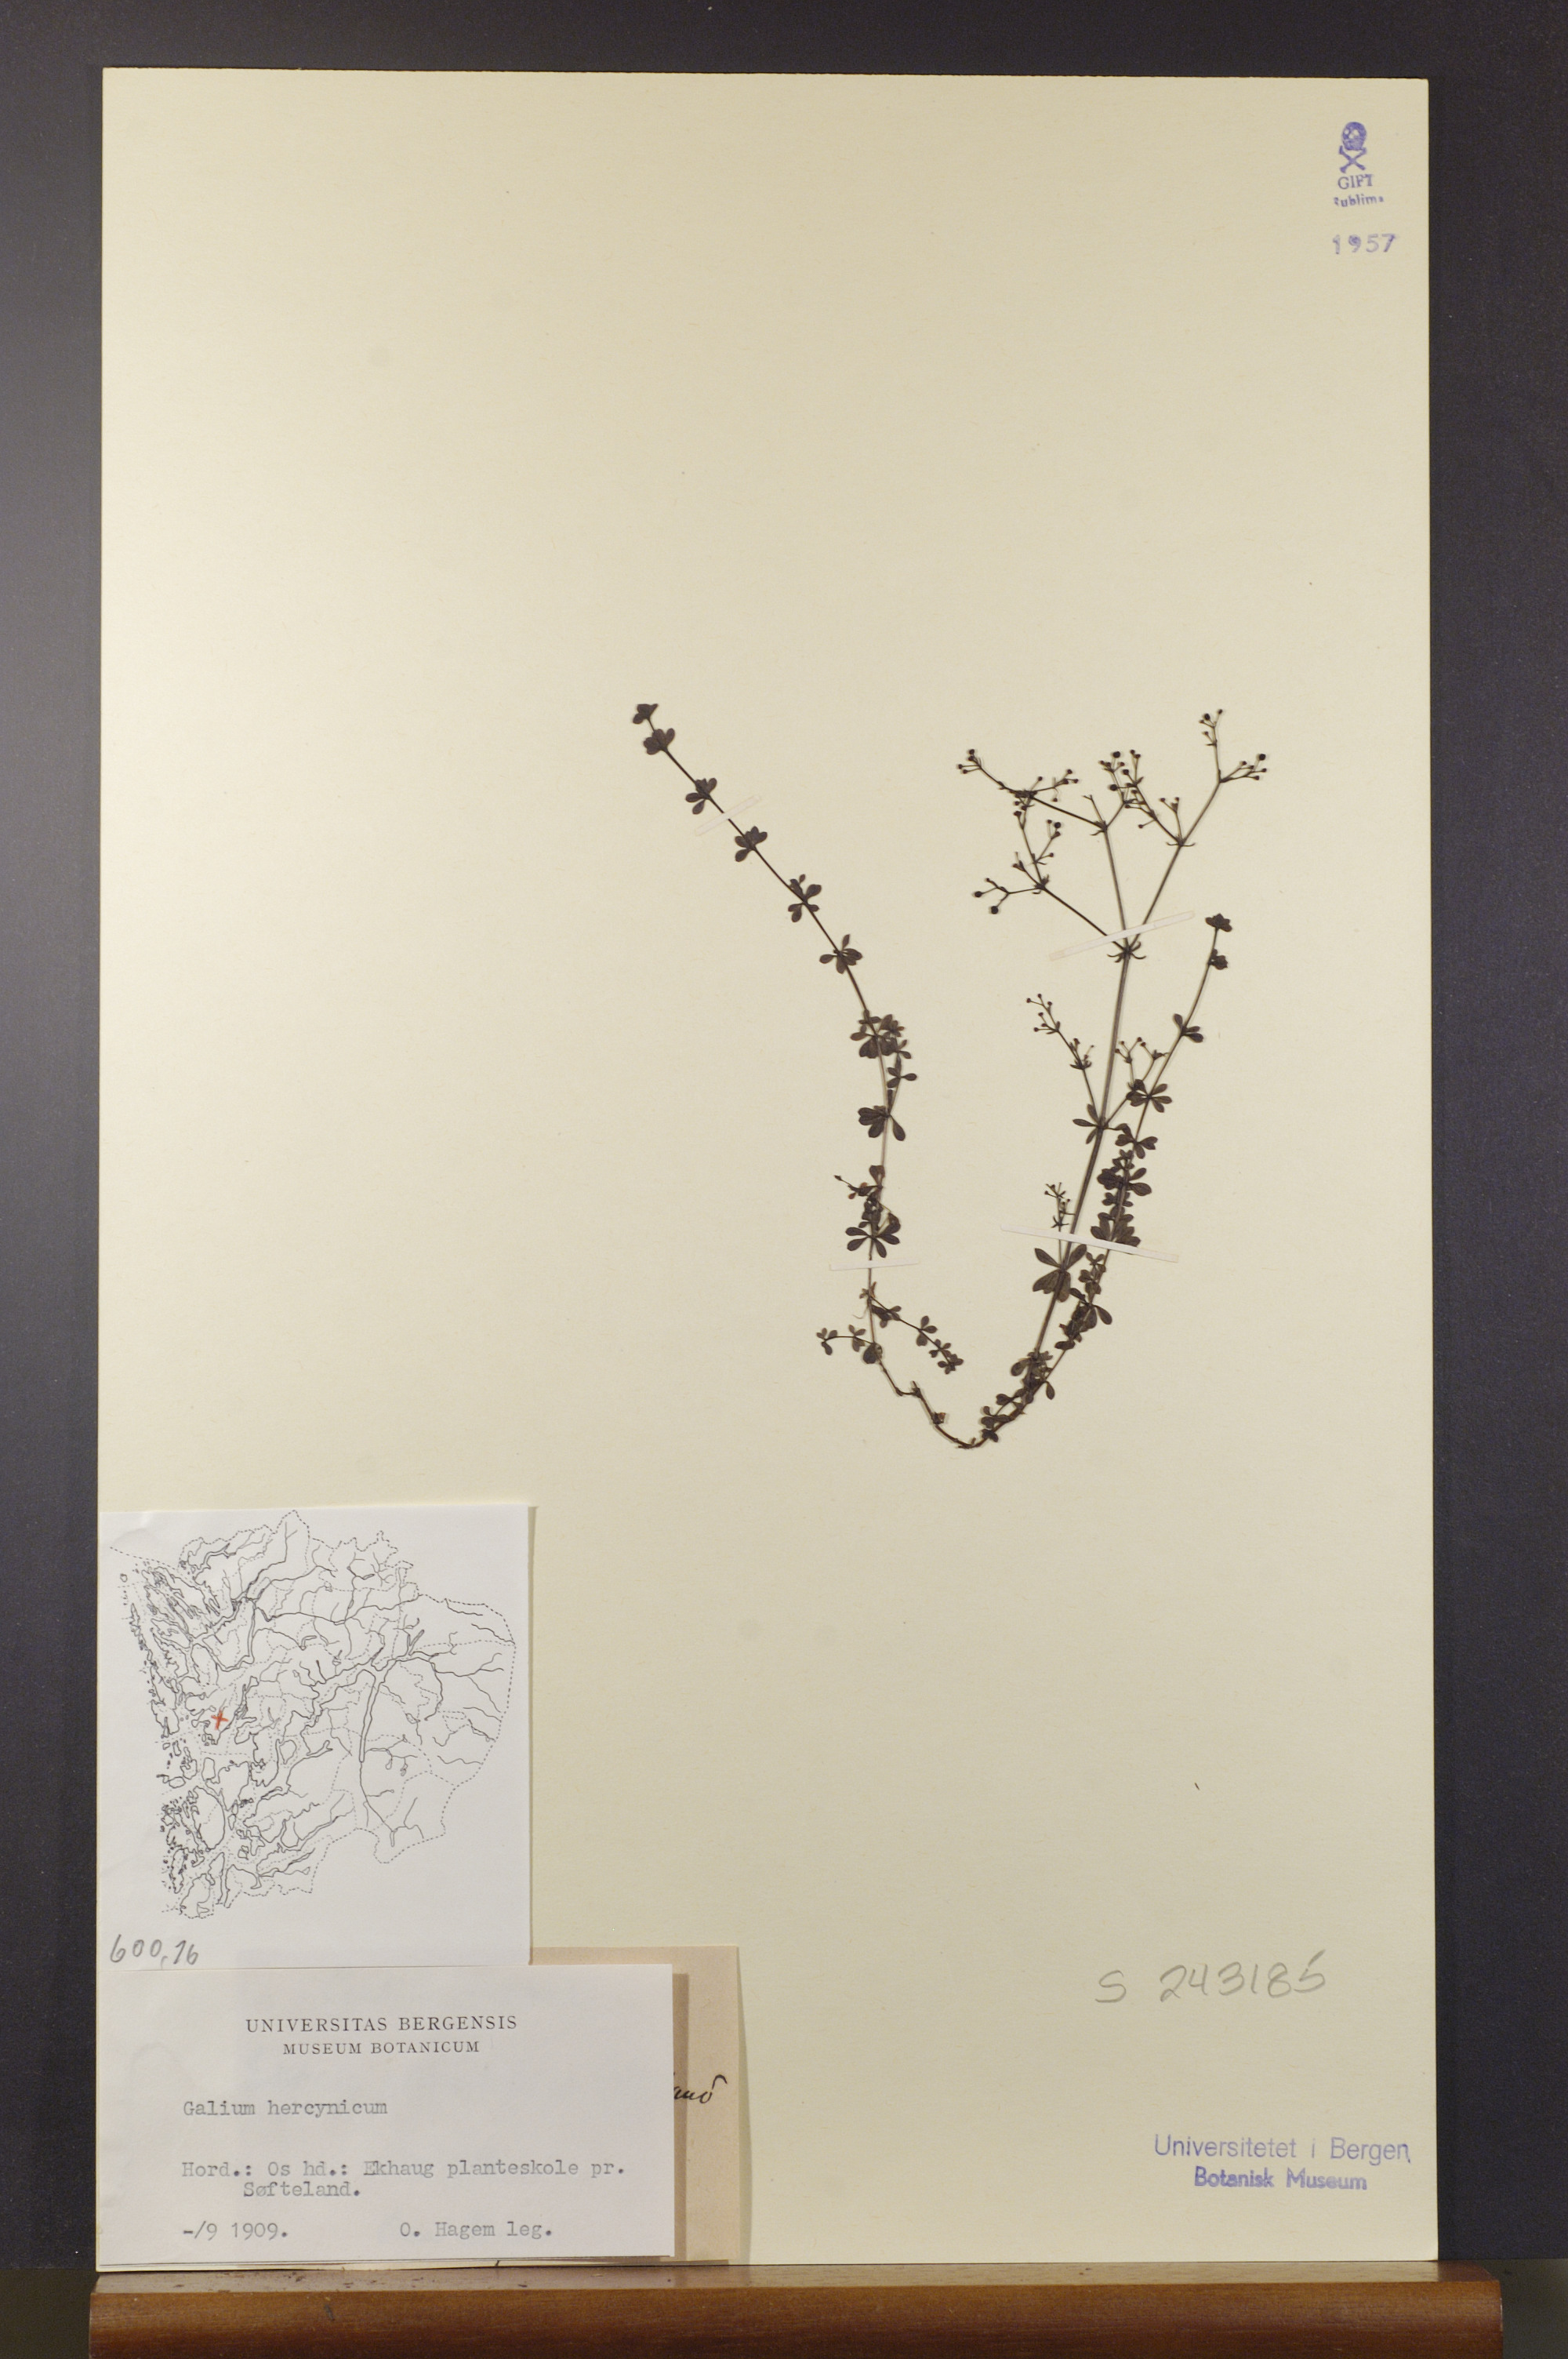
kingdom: Plantae
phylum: Tracheophyta
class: Magnoliopsida
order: Gentianales
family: Rubiaceae
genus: Galium
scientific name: Galium saxatile
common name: Heath bedstraw
